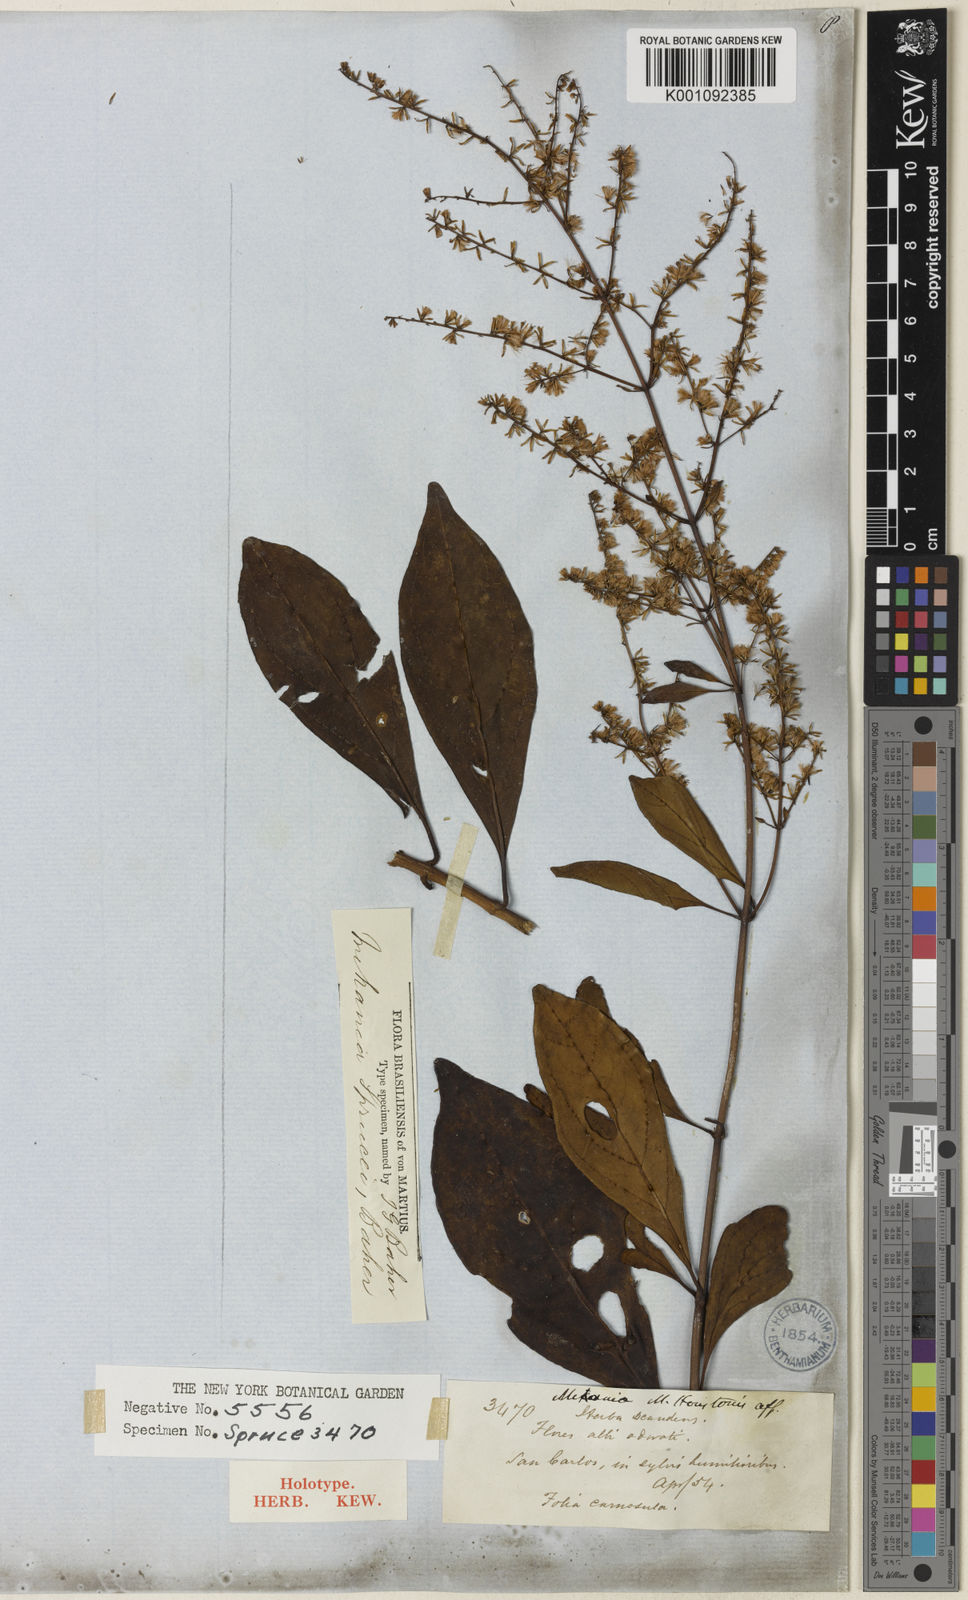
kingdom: Plantae
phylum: Tracheophyta
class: Magnoliopsida
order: Asterales
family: Asteraceae
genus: Mikania
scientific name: Mikania sprucei
